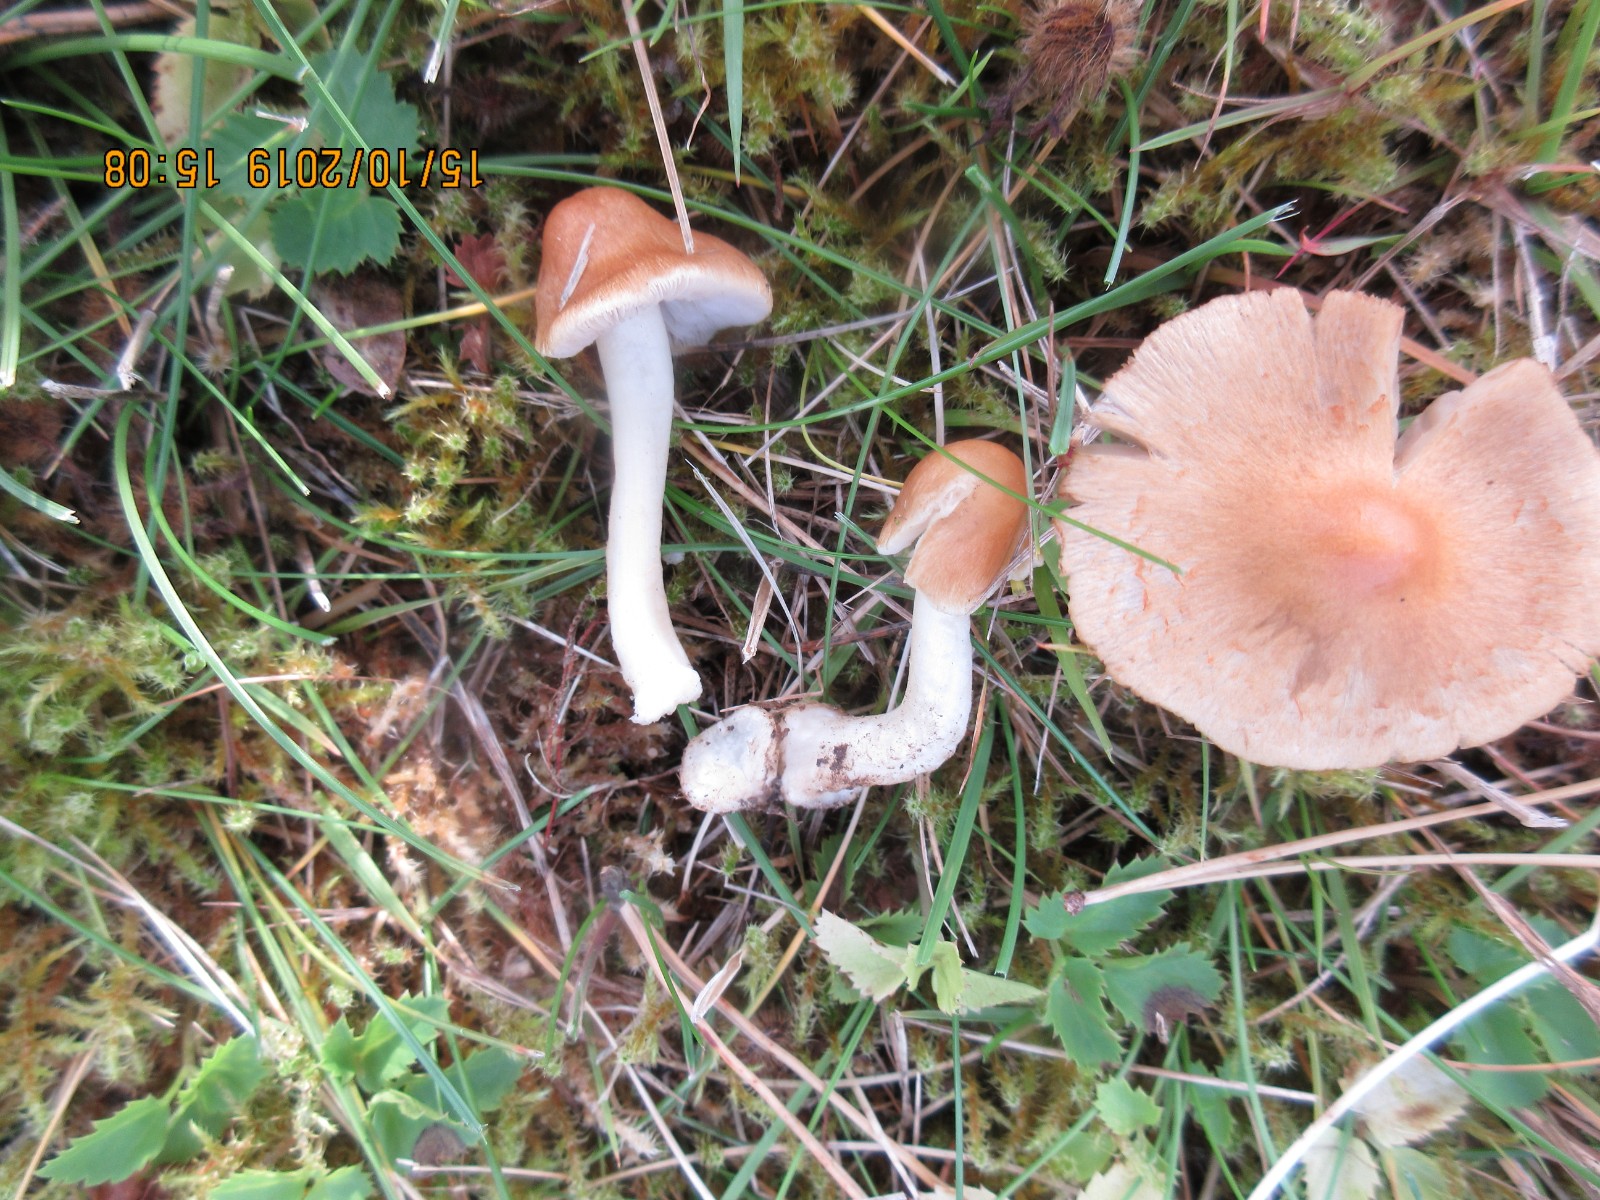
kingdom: Fungi
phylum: Basidiomycota
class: Agaricomycetes
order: Agaricales
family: Inocybaceae
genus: Inocybe
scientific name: Inocybe mixtilis
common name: randknoldet trævlhat
